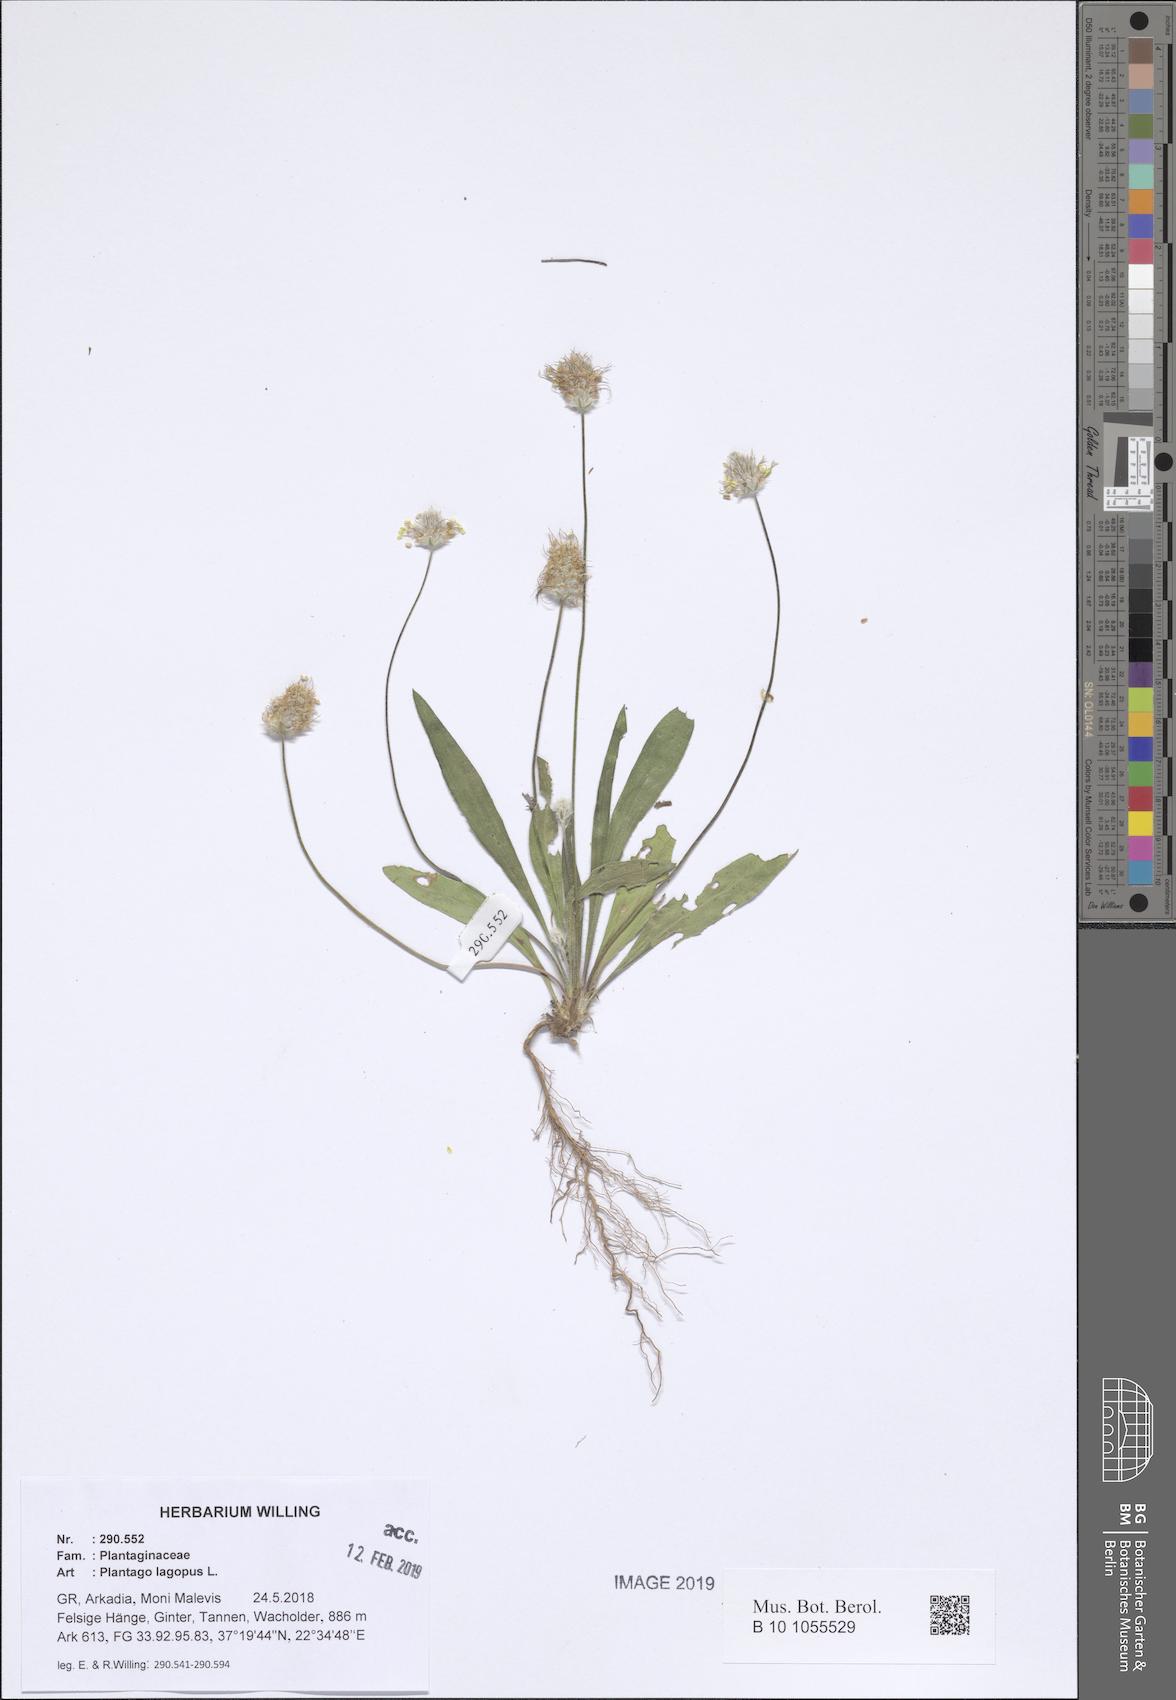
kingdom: Plantae
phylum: Tracheophyta
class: Magnoliopsida
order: Lamiales
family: Plantaginaceae
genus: Plantago
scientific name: Plantago lagopus
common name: Hare-foot plantain
